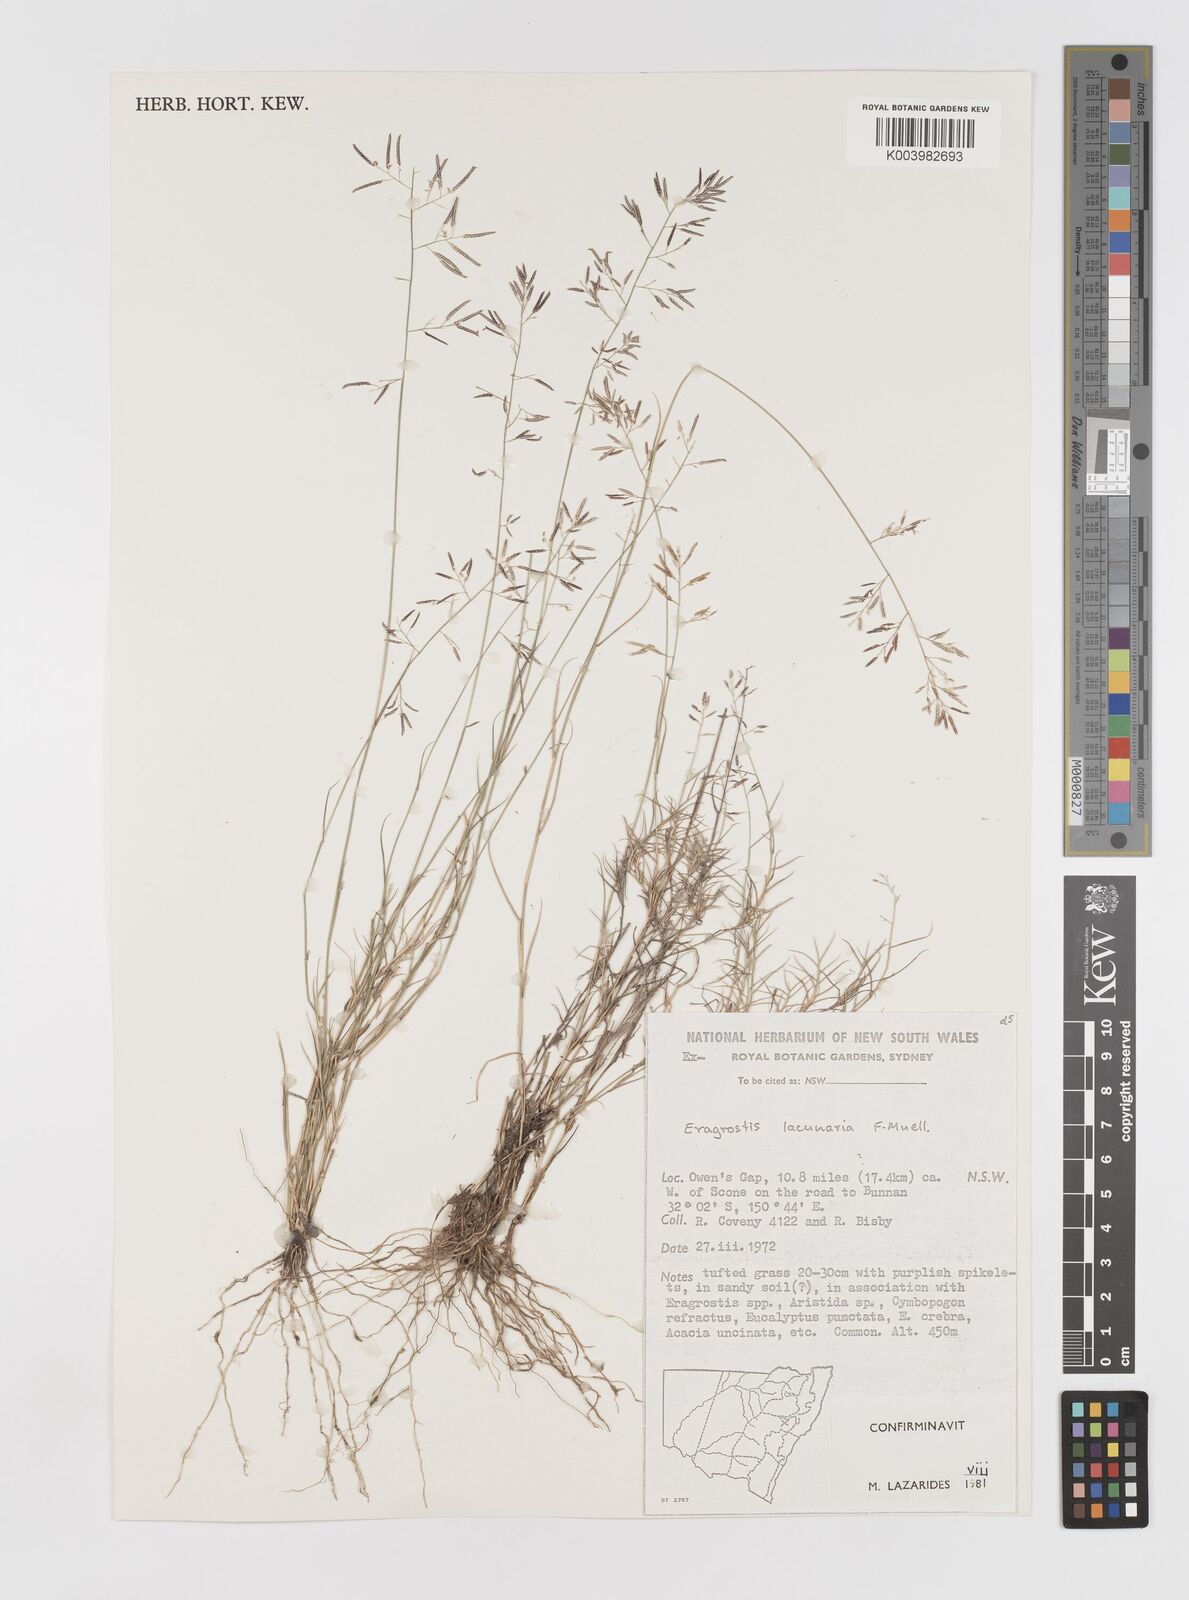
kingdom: Plantae
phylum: Tracheophyta
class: Liliopsida
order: Poales
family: Poaceae
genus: Eragrostis
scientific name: Eragrostis lacunaria
